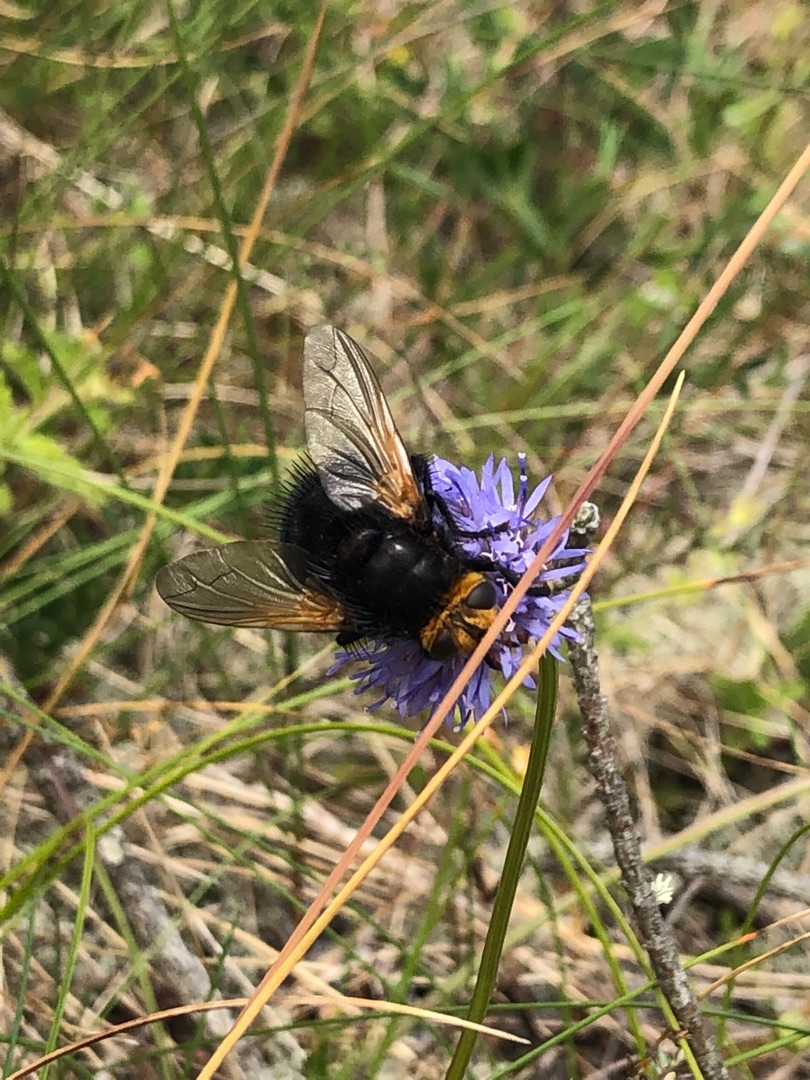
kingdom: Animalia
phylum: Arthropoda
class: Insecta
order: Diptera
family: Tachinidae
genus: Tachina
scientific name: Tachina grossa
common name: Kæmpefluen Harald
